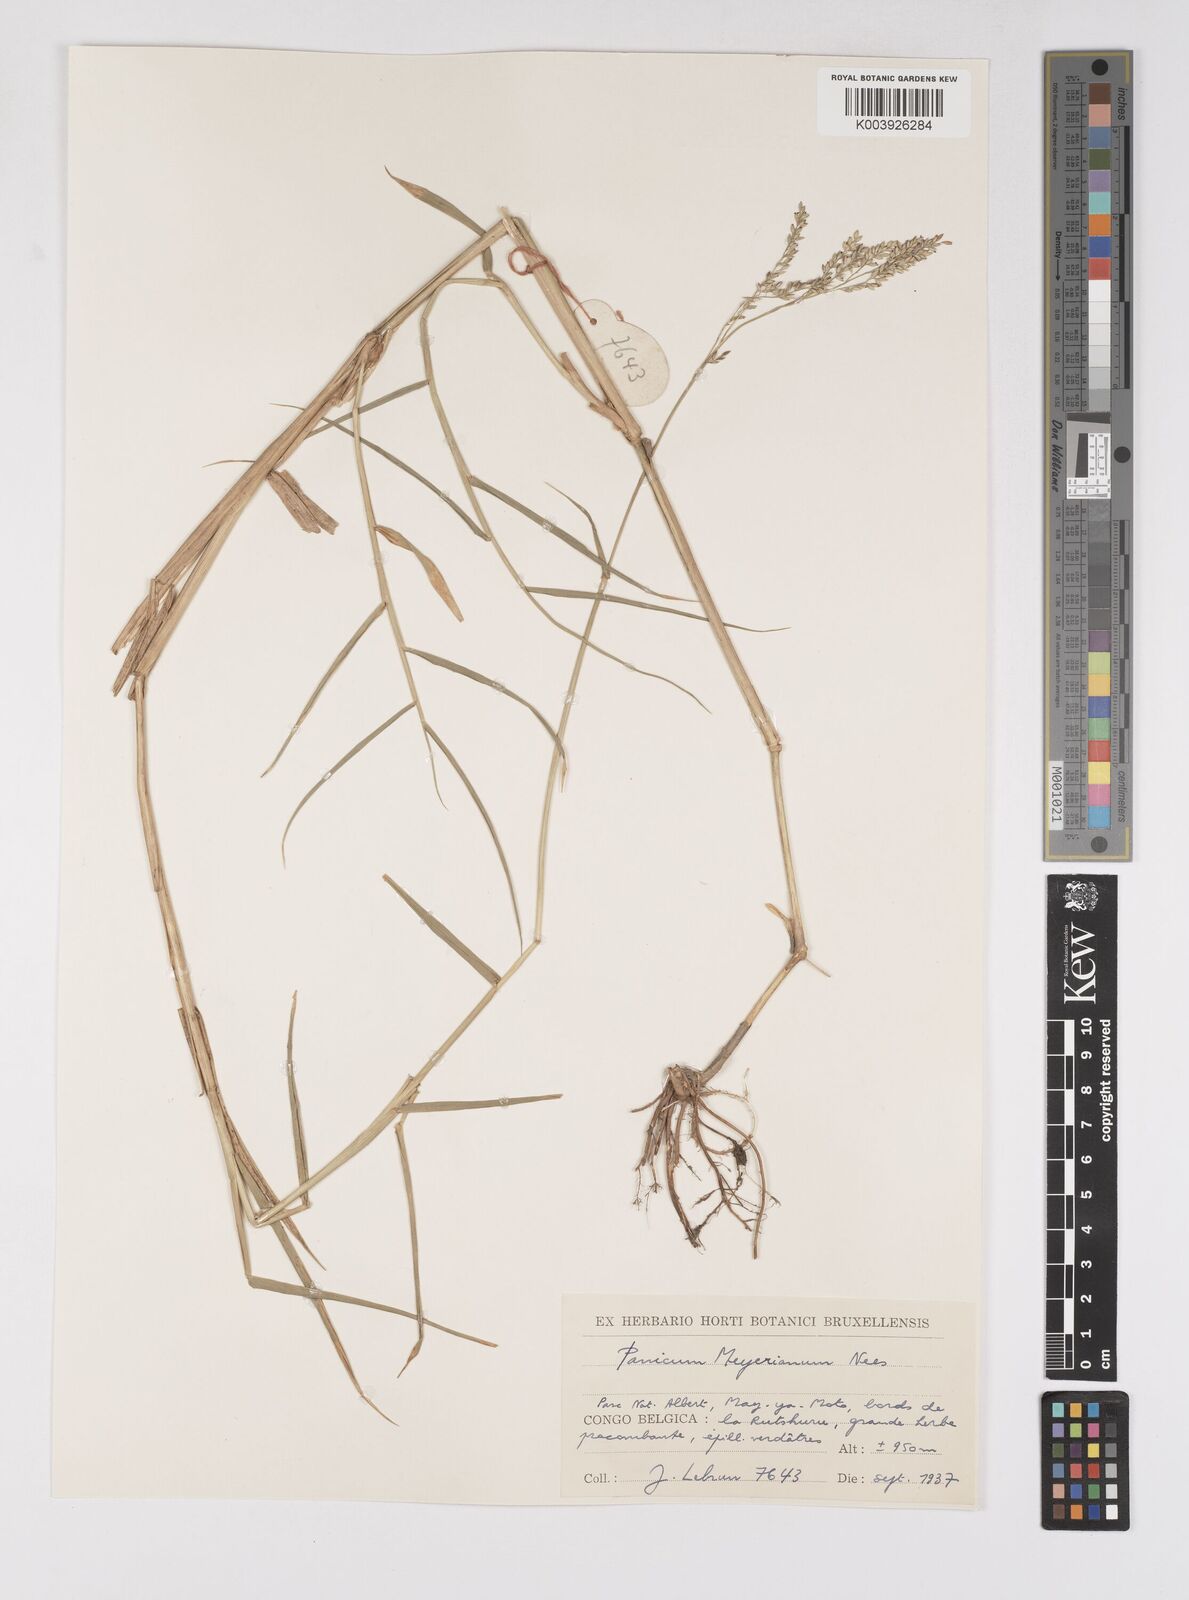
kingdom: Plantae
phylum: Tracheophyta
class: Liliopsida
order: Poales
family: Poaceae
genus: Eriochloa
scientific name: Eriochloa meyeriana
